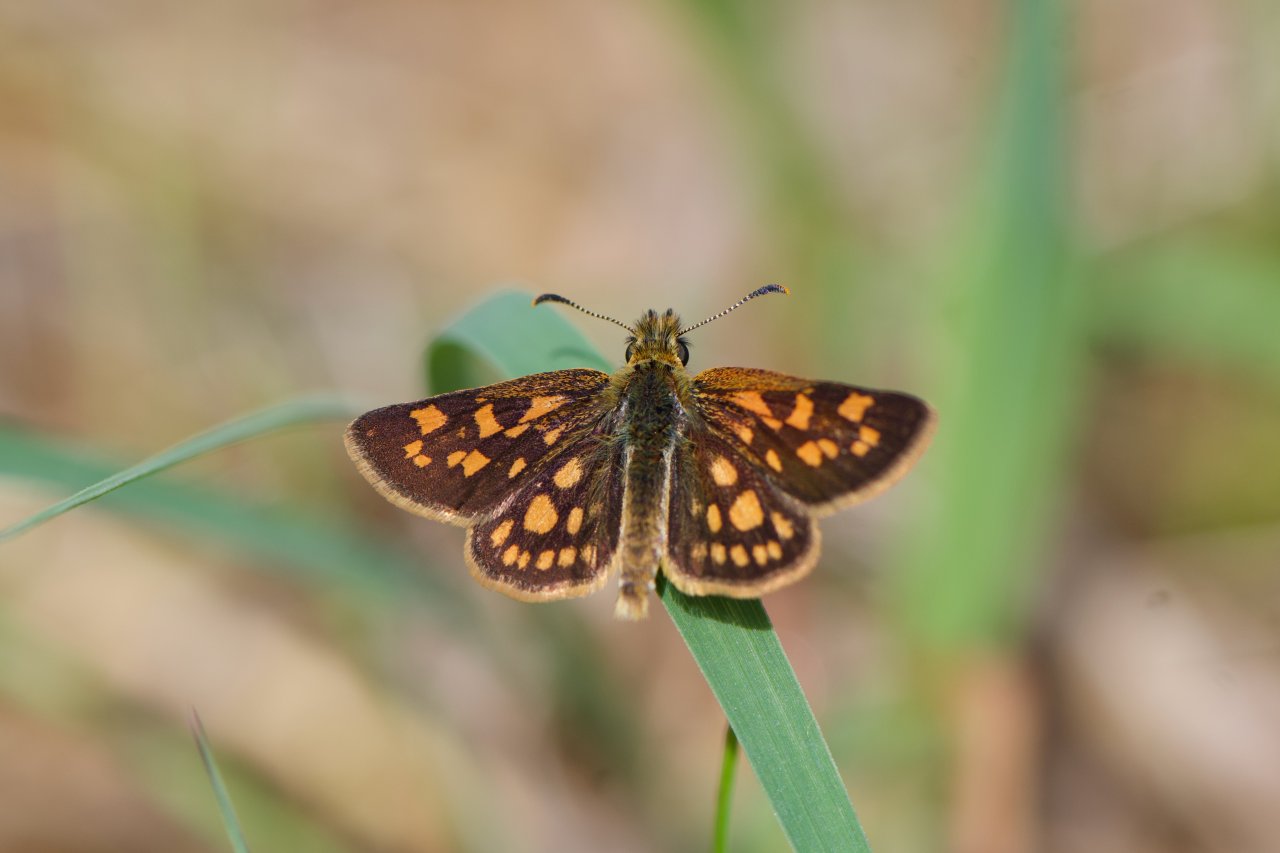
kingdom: Animalia
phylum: Arthropoda
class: Insecta
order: Lepidoptera
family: Hesperiidae
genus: Carterocephalus
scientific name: Carterocephalus palaemon
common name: Chequered Skipper
